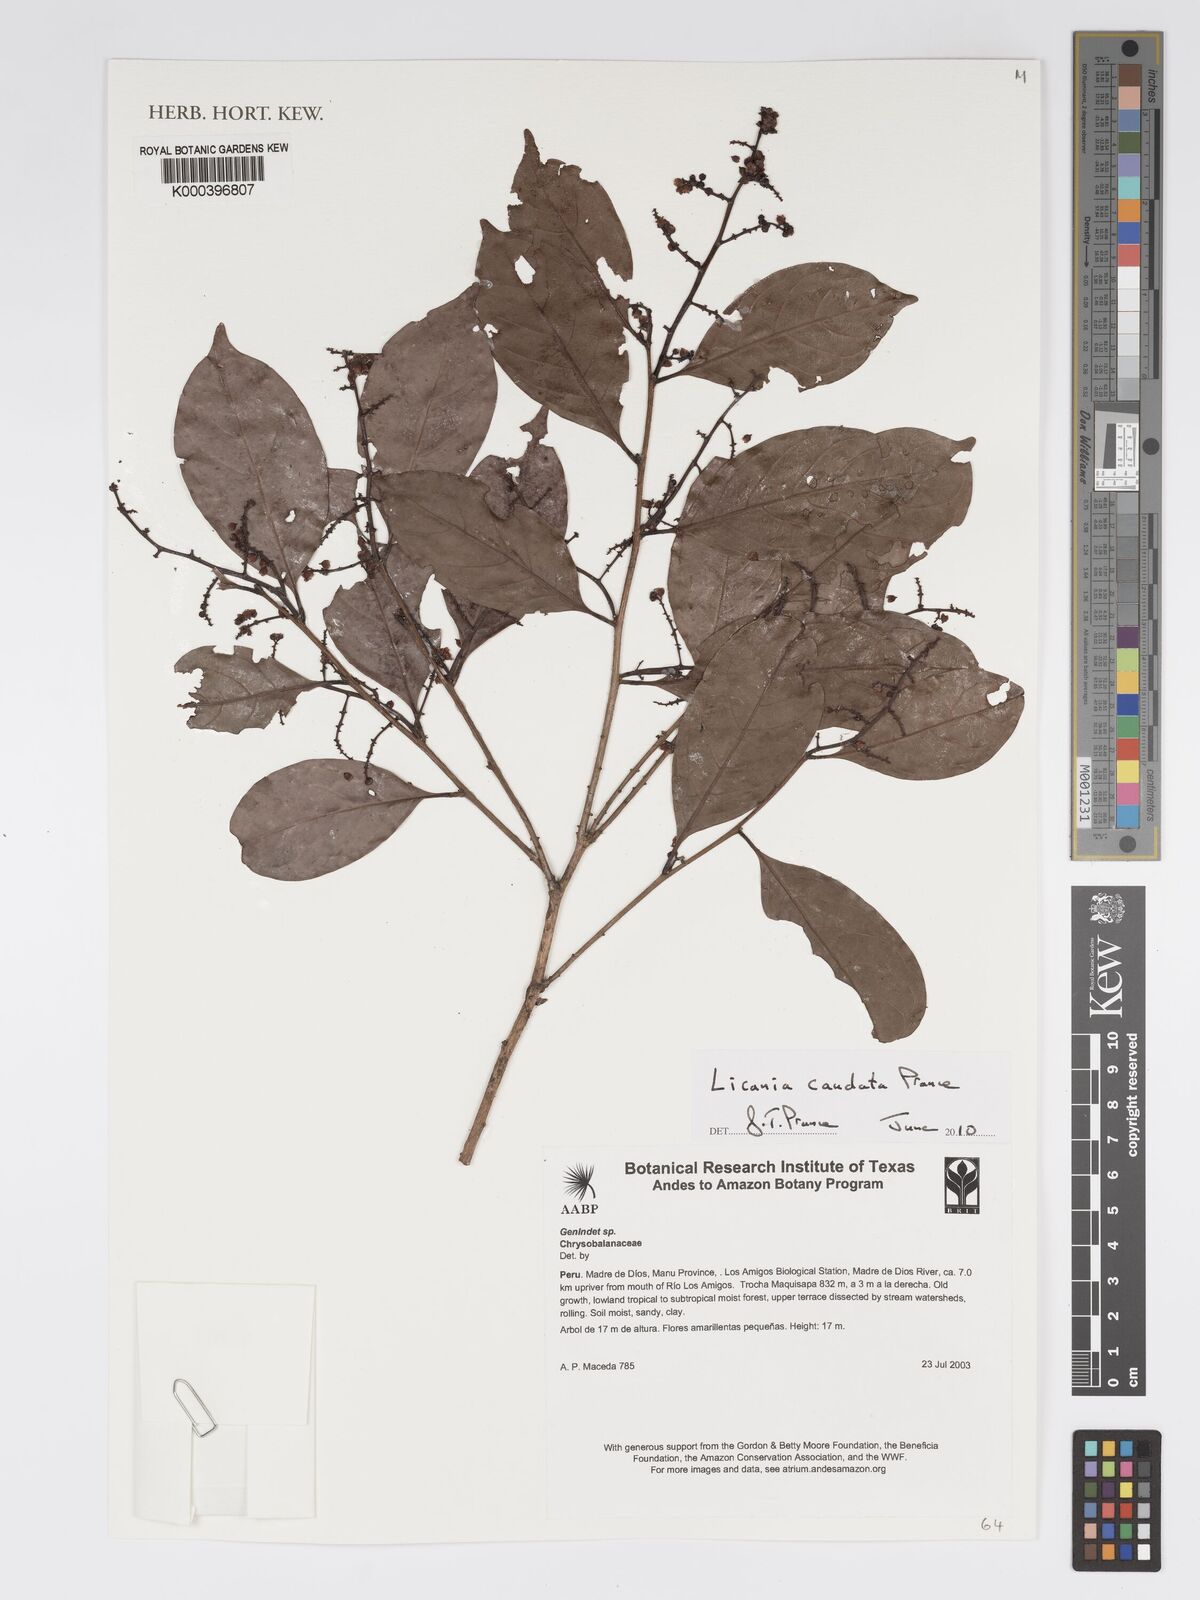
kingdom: Plantae
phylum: Tracheophyta
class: Magnoliopsida
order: Malpighiales
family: Chrysobalanaceae
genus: Hymenopus
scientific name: Hymenopus caudatus
